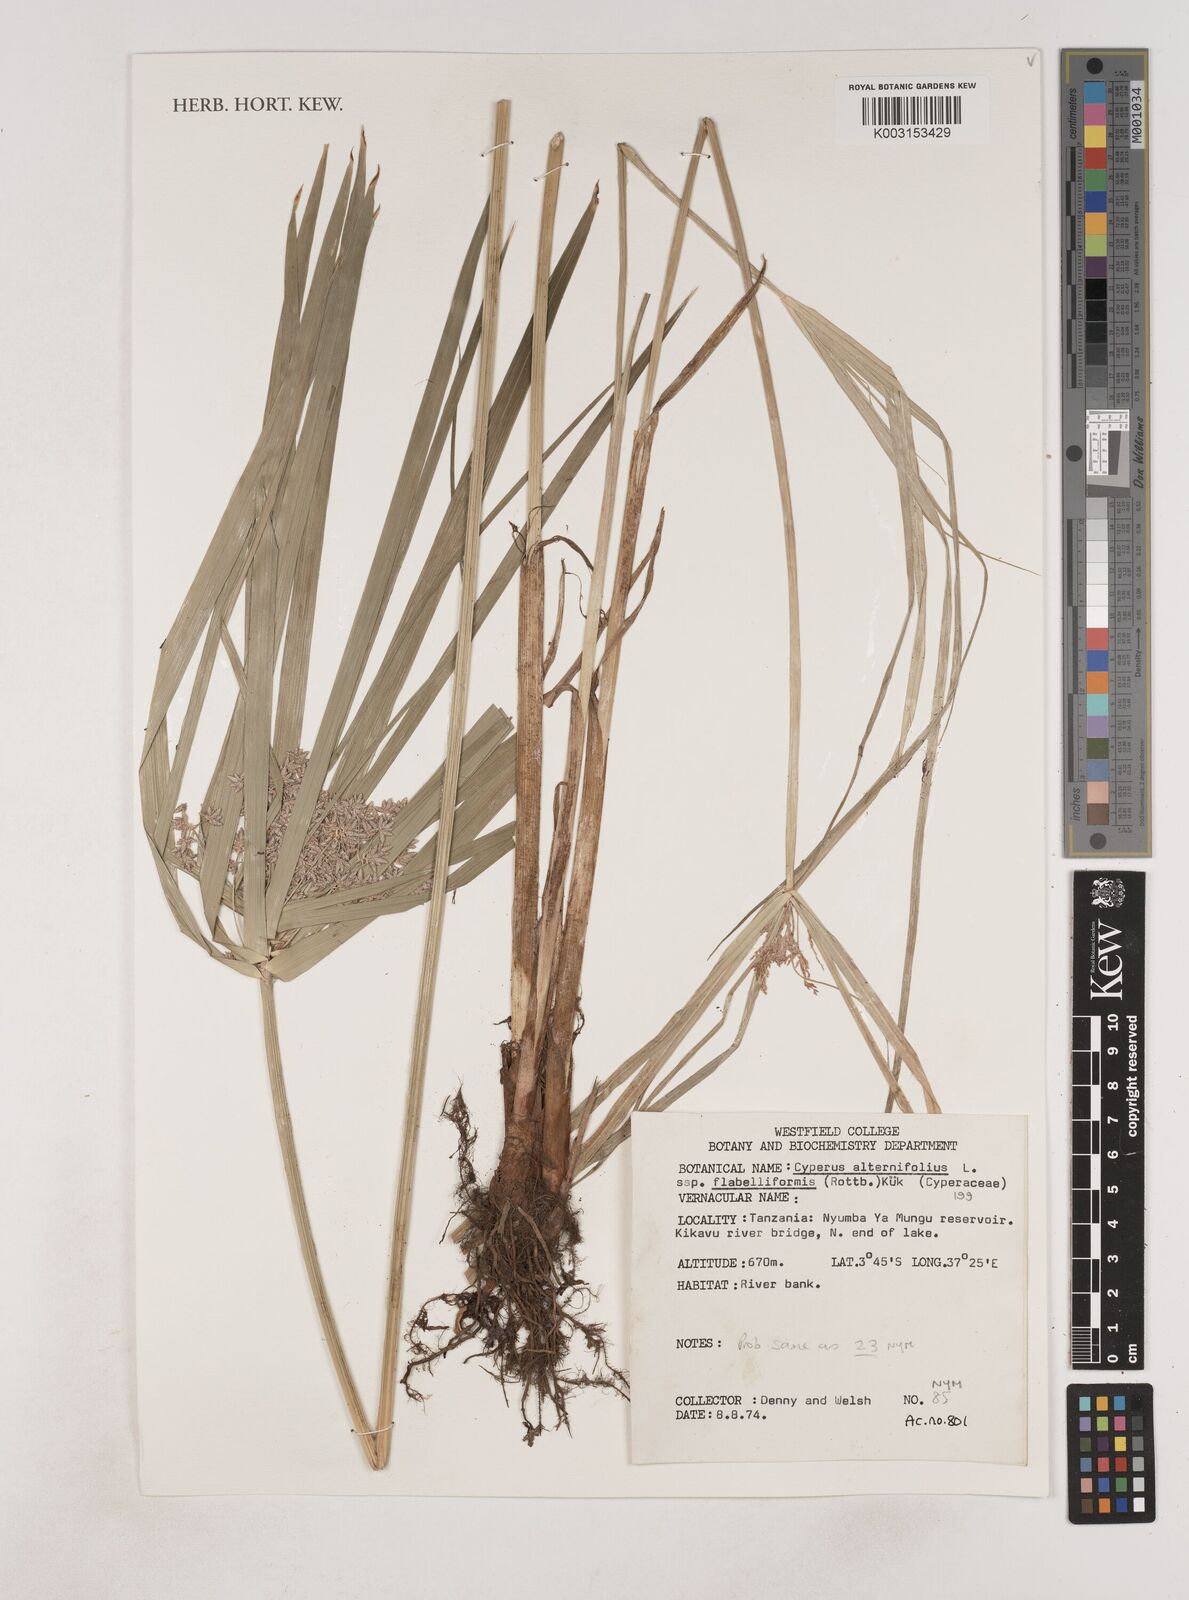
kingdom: Plantae
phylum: Tracheophyta
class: Liliopsida
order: Poales
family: Cyperaceae
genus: Cyperus
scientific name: Cyperus
